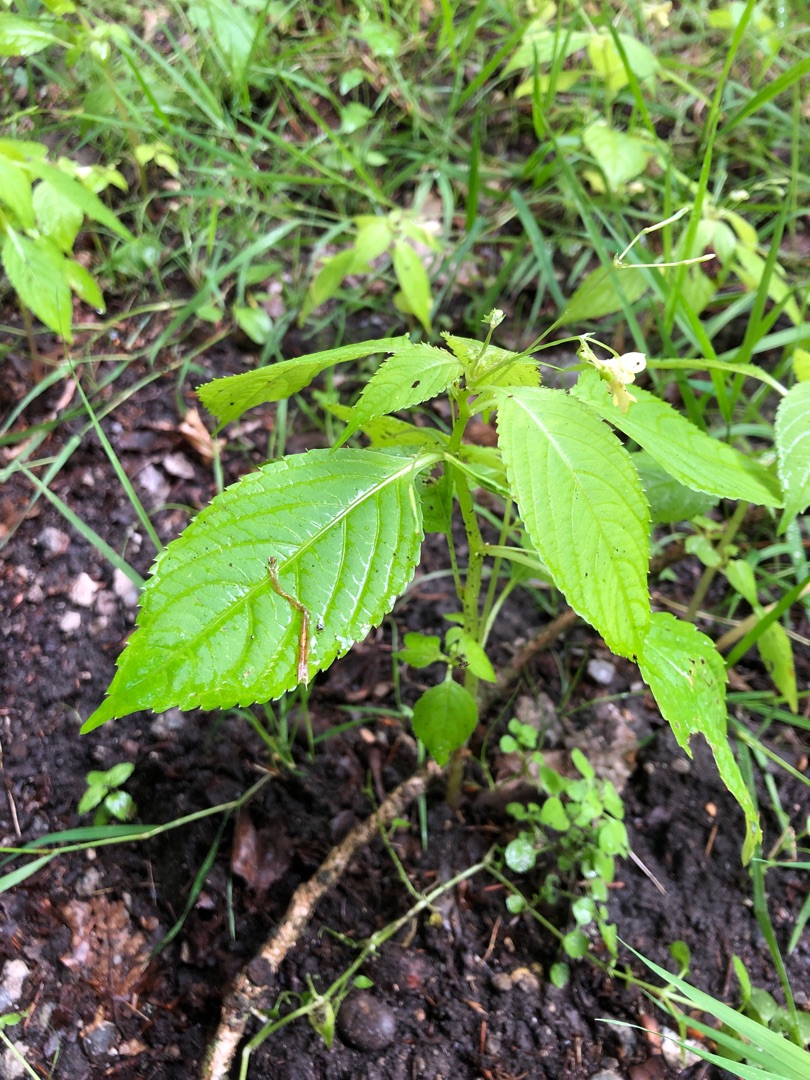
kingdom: Plantae
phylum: Tracheophyta
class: Magnoliopsida
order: Ericales
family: Balsaminaceae
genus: Impatiens
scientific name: Impatiens parviflora
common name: Småblomstret balsamin
